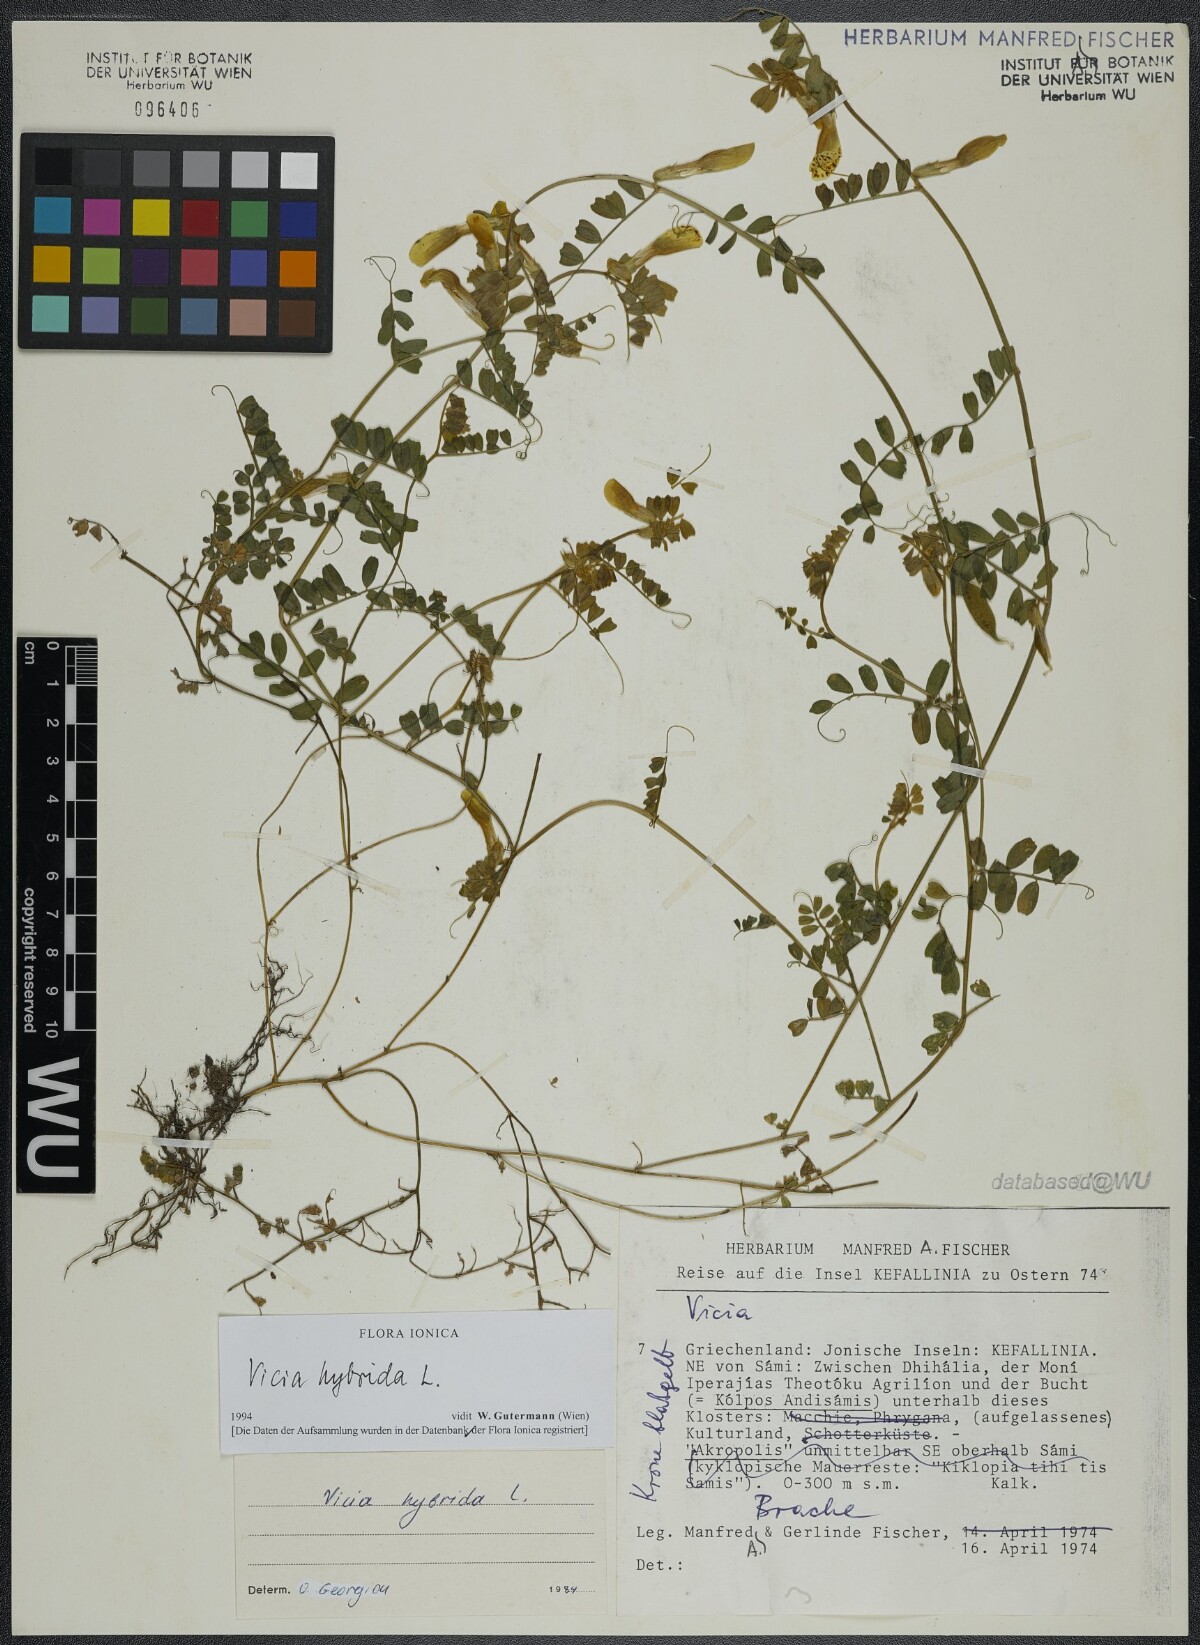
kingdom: Plantae
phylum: Tracheophyta
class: Magnoliopsida
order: Fabales
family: Fabaceae
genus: Vicia
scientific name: Vicia hybrida
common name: Hairy yellow vetch
